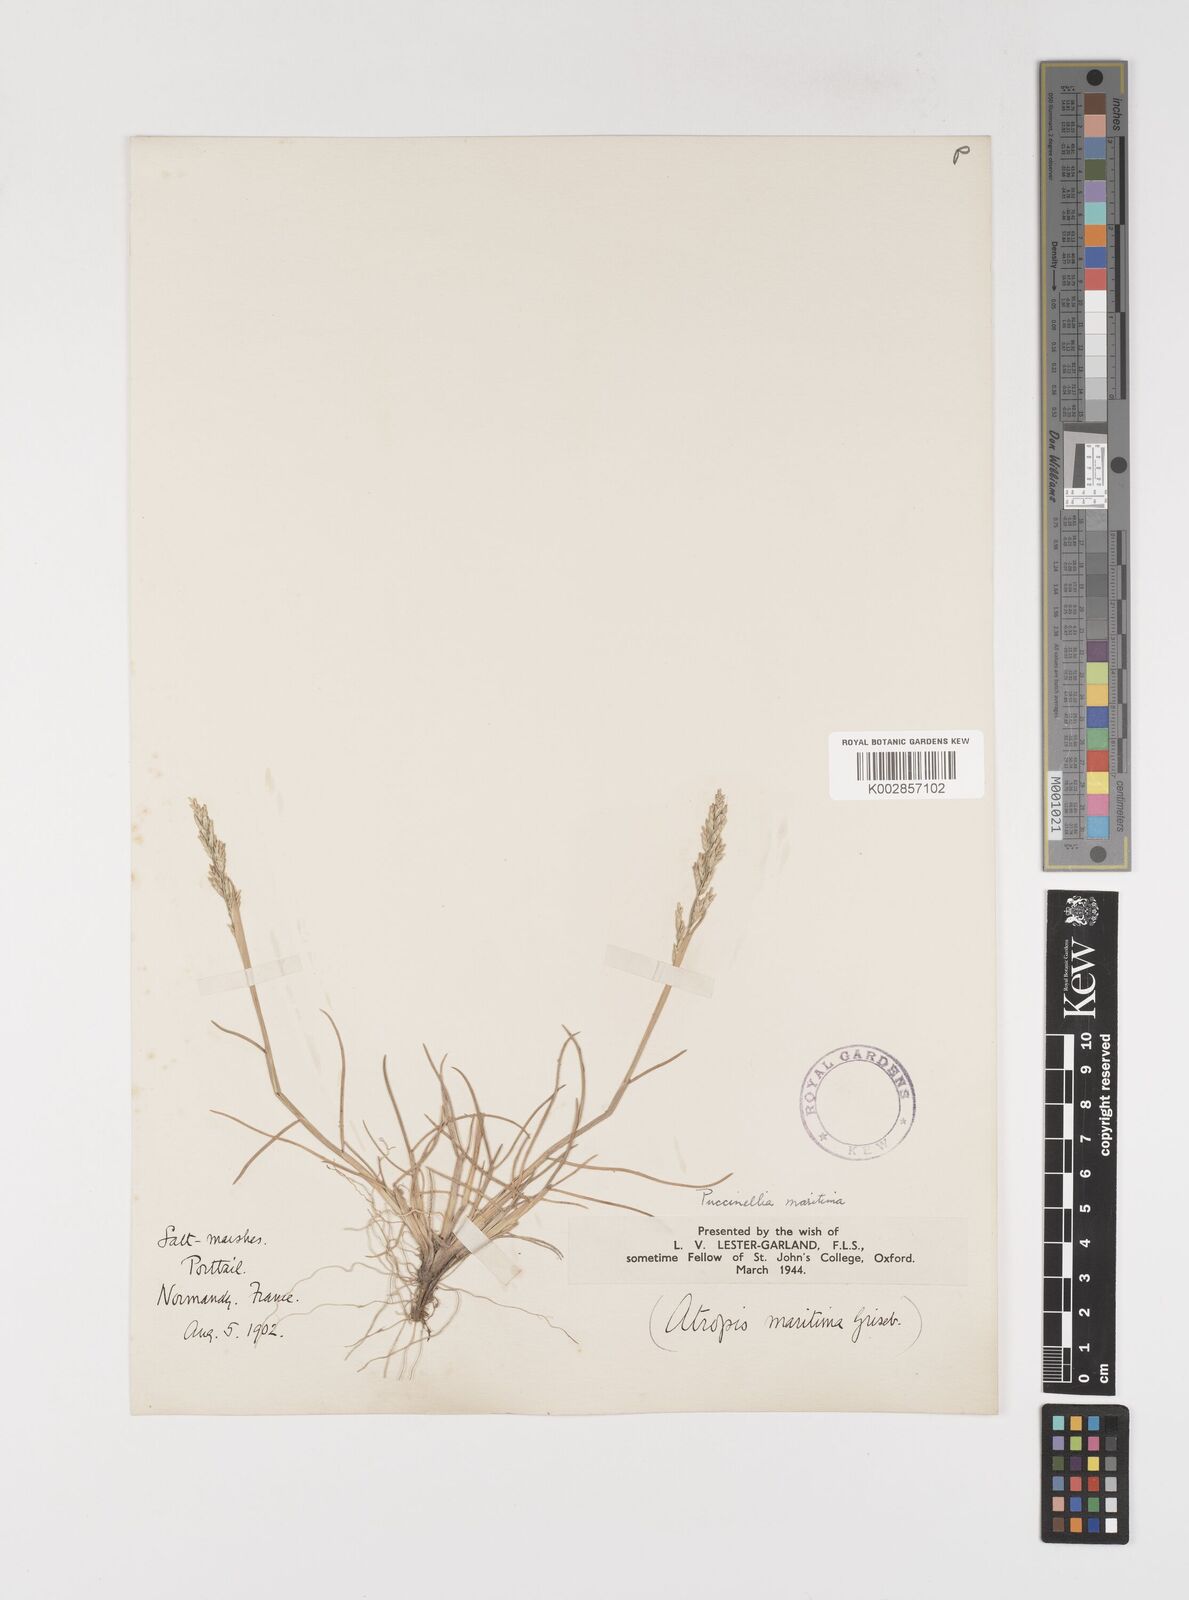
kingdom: Plantae
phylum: Tracheophyta
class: Liliopsida
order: Poales
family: Poaceae
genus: Puccinellia
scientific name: Puccinellia maritima
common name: Common saltmarsh grass
